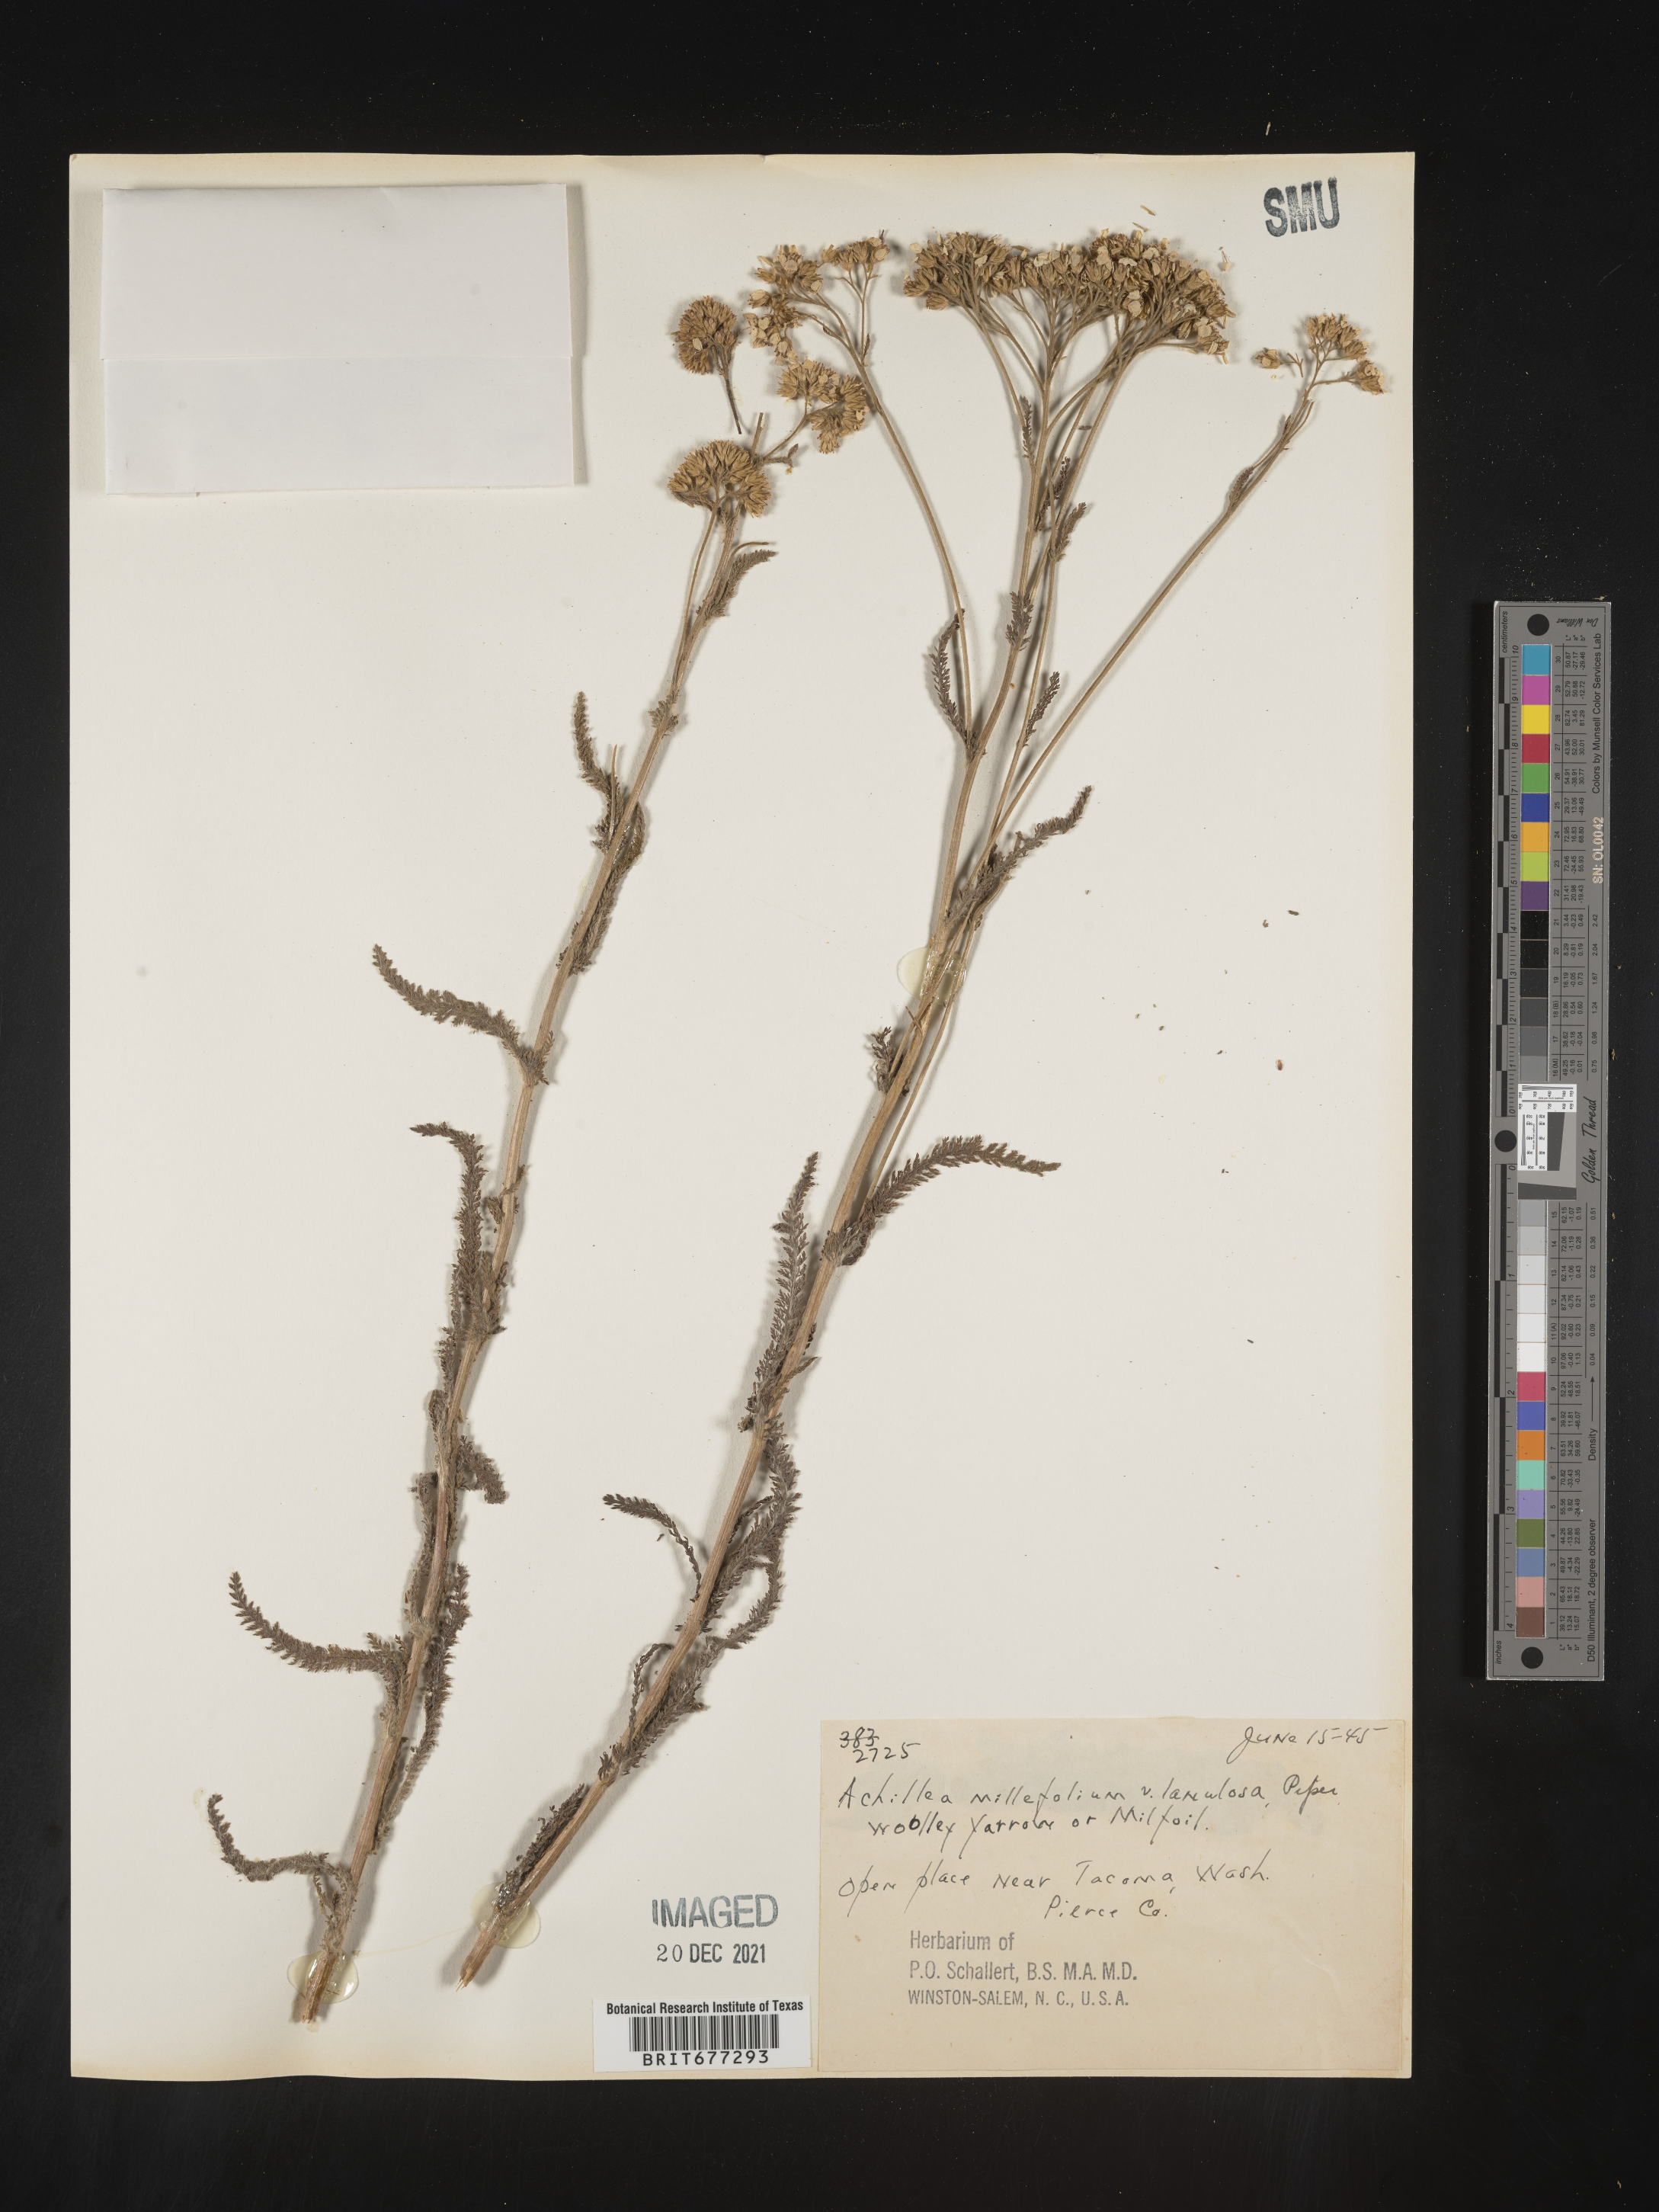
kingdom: Plantae
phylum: Tracheophyta
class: Magnoliopsida
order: Asterales
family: Asteraceae
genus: Achillea
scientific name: Achillea millefolium
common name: Yarrow
